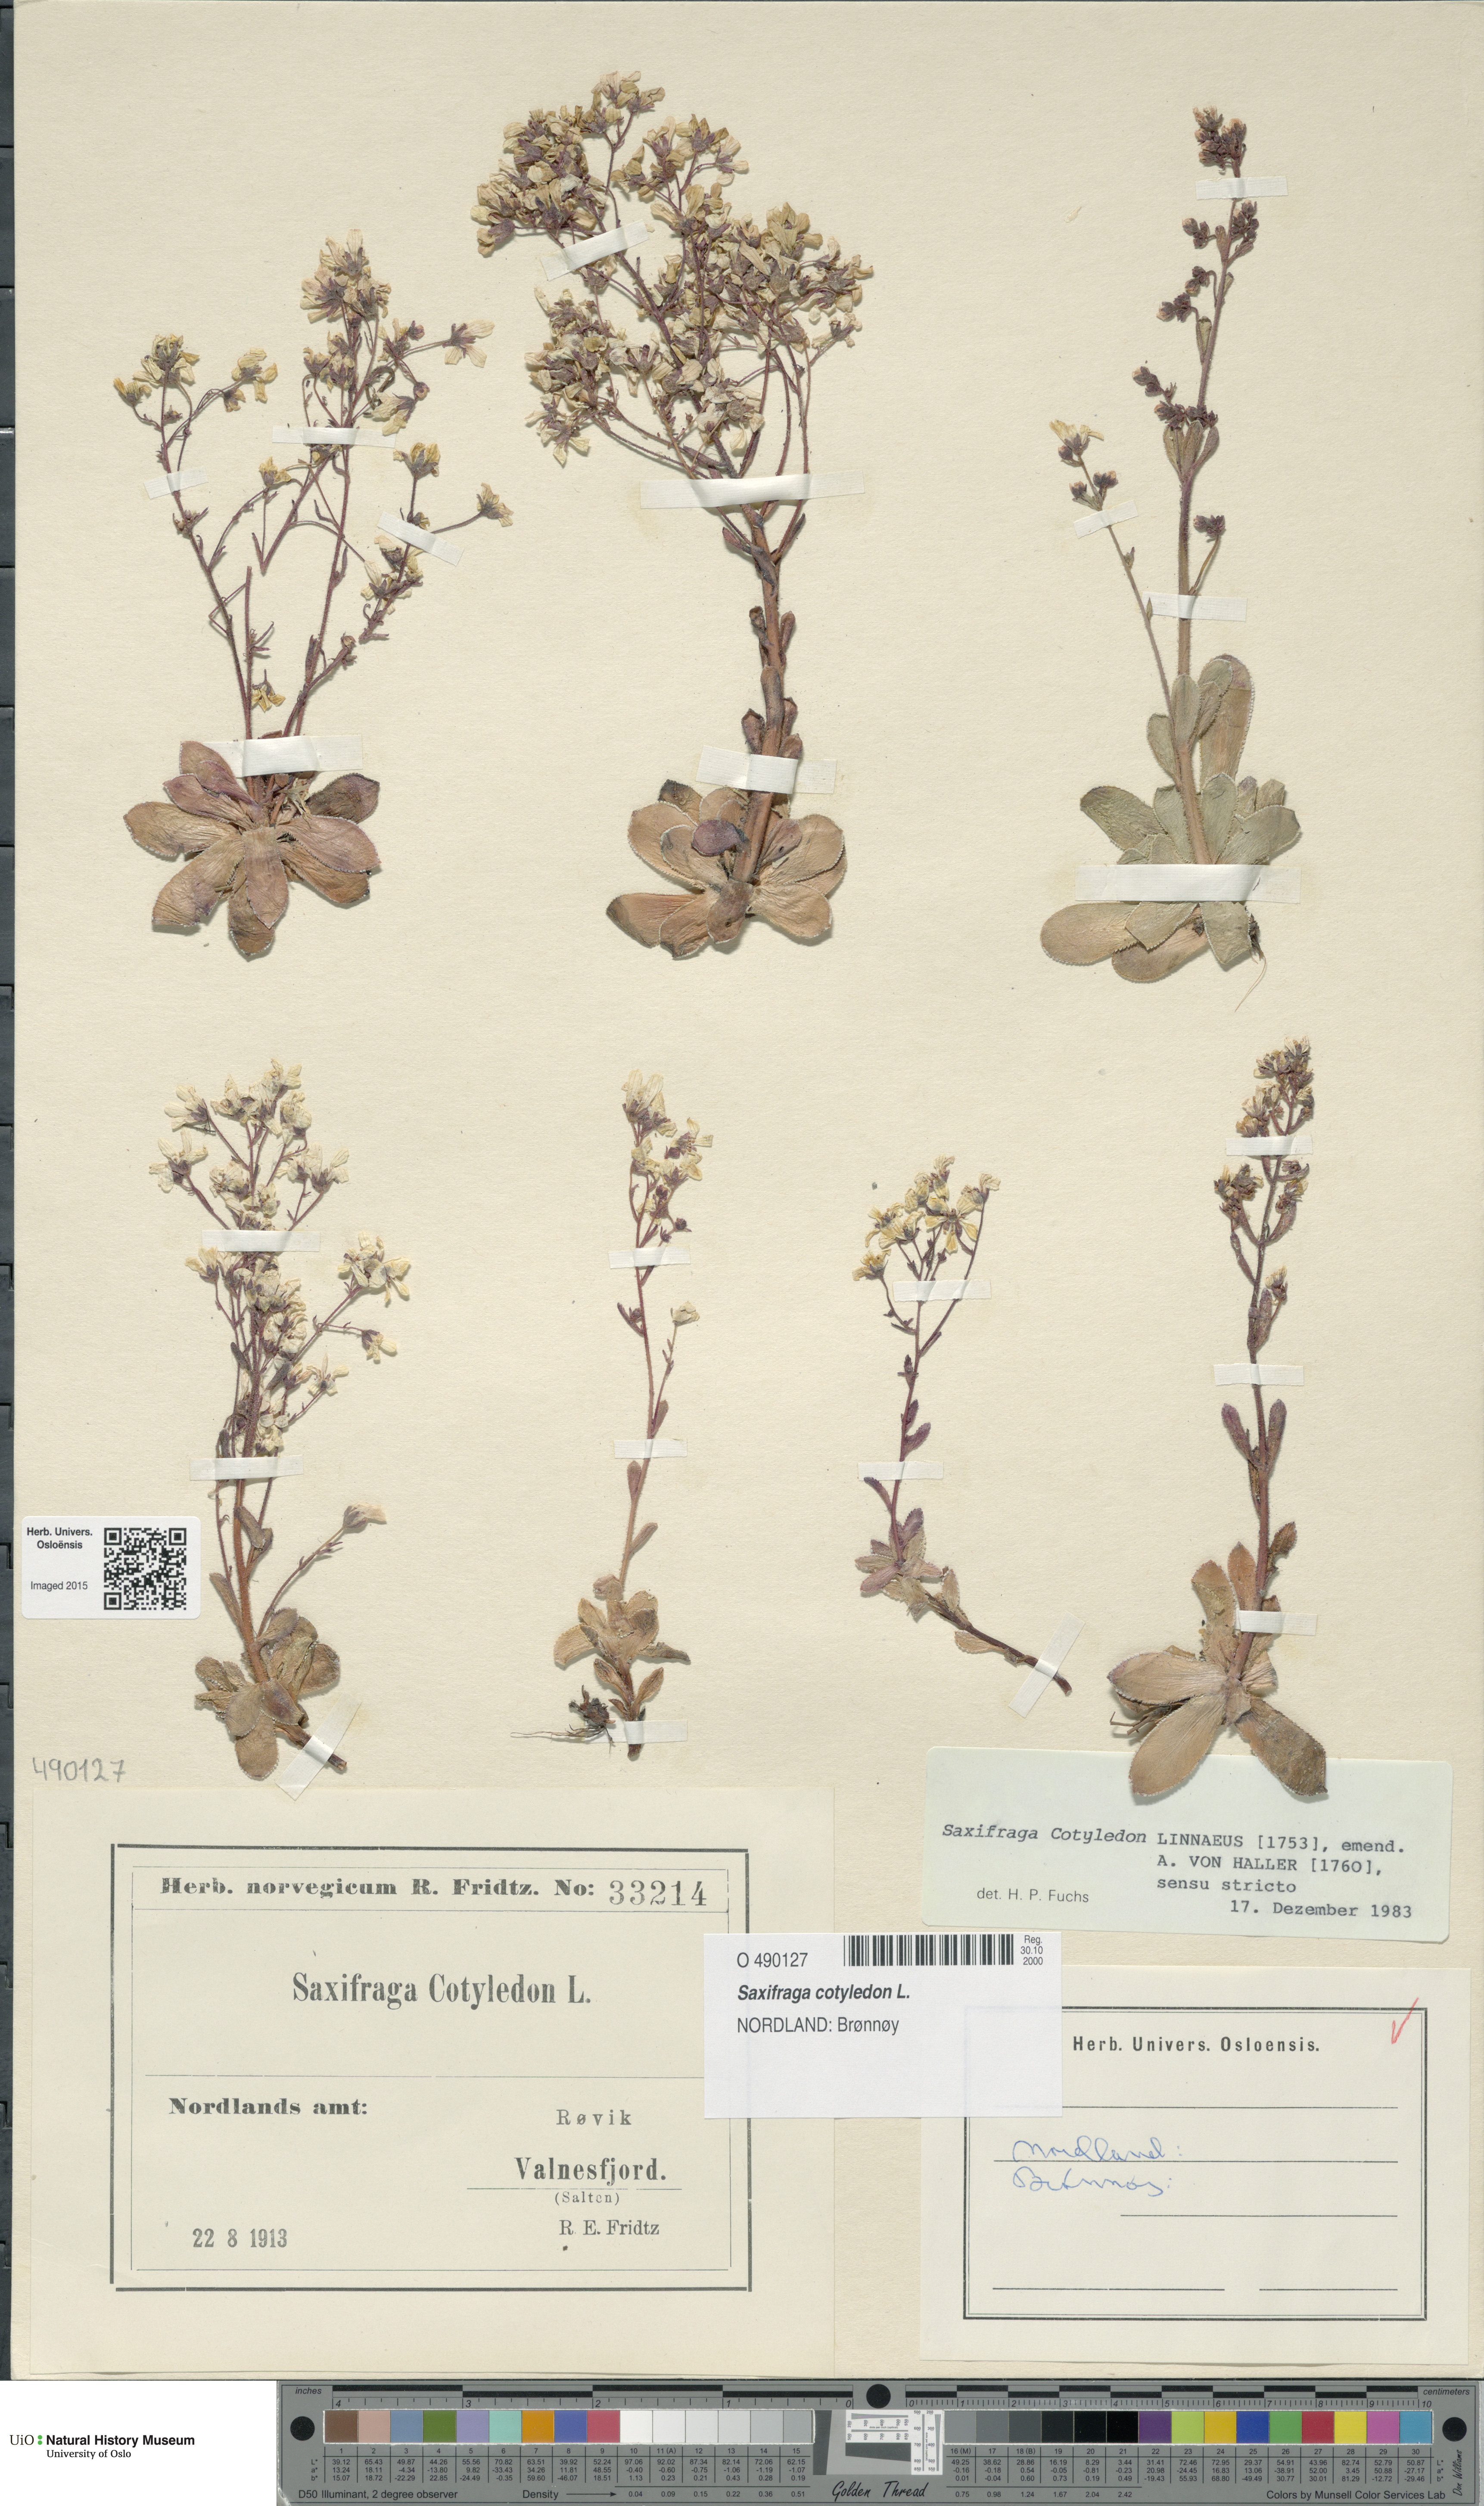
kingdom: Plantae
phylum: Tracheophyta
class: Magnoliopsida
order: Saxifragales
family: Saxifragaceae
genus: Saxifraga
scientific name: Saxifraga cotyledon
